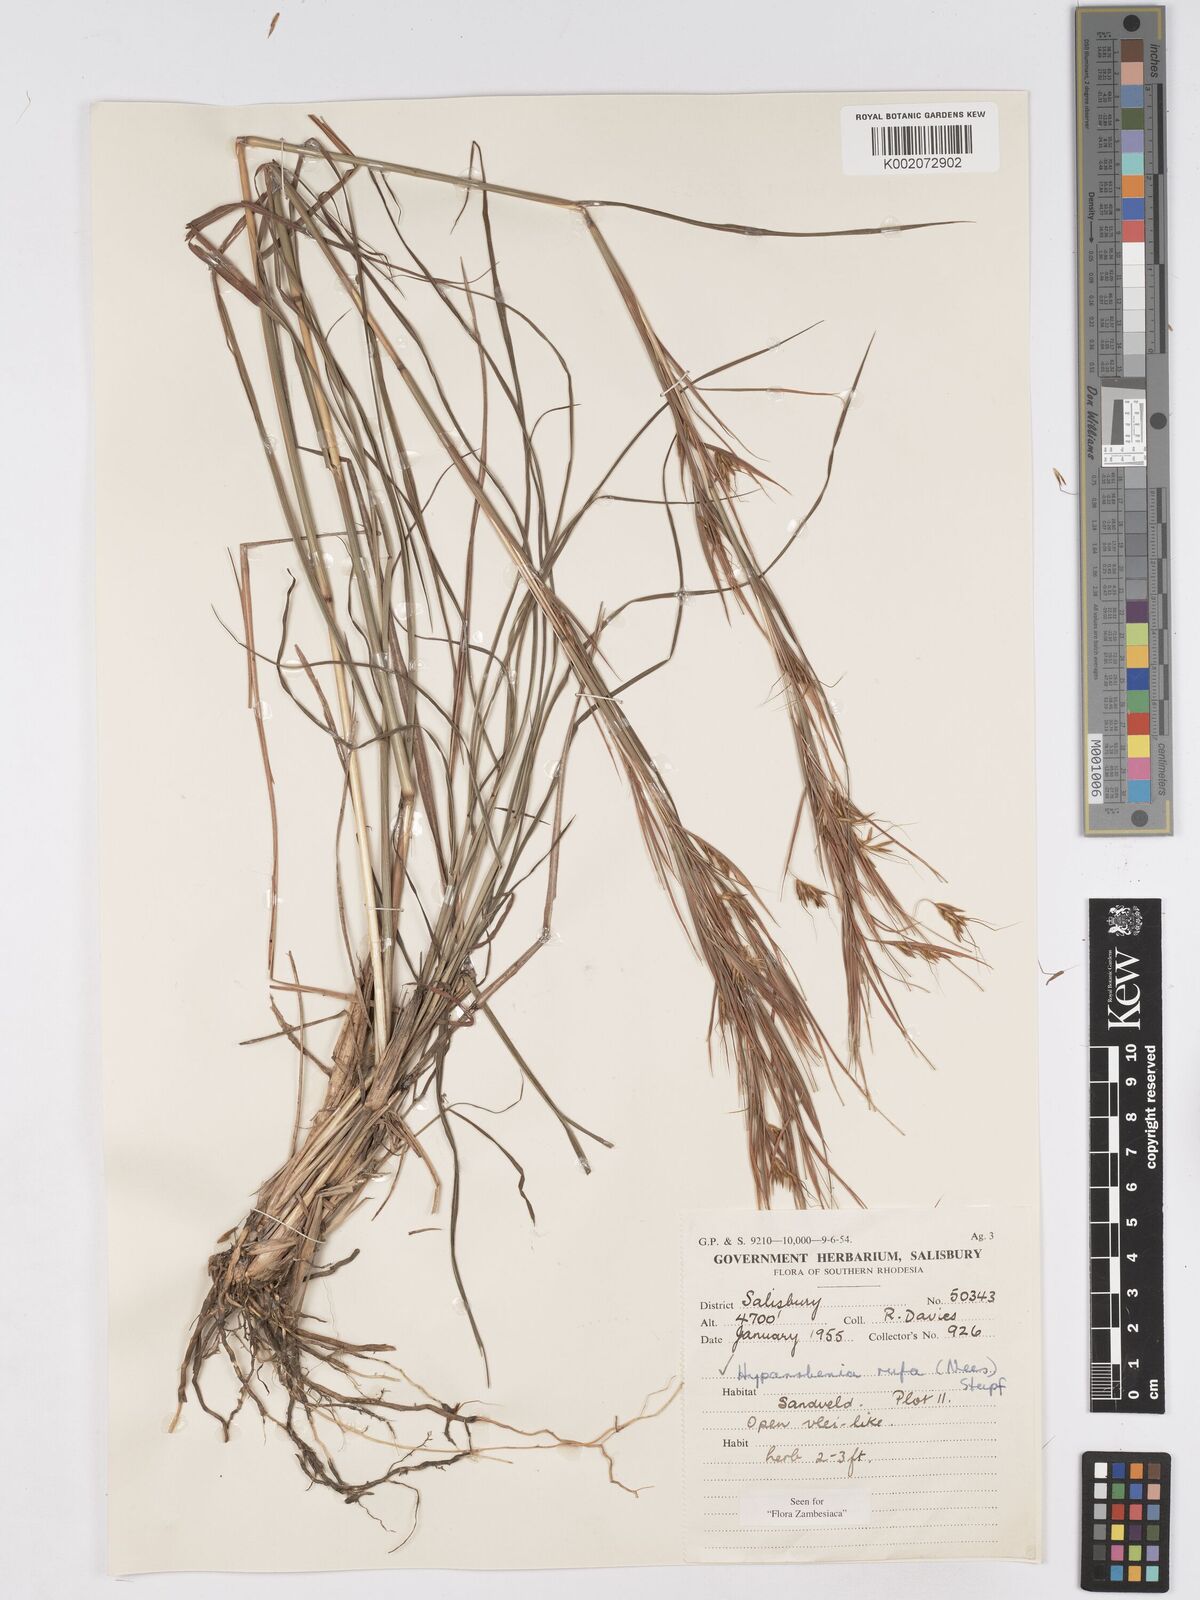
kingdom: Plantae
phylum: Tracheophyta
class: Liliopsida
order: Poales
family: Poaceae
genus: Hyparrhenia
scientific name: Hyparrhenia rufa
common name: Jaraguagrass
